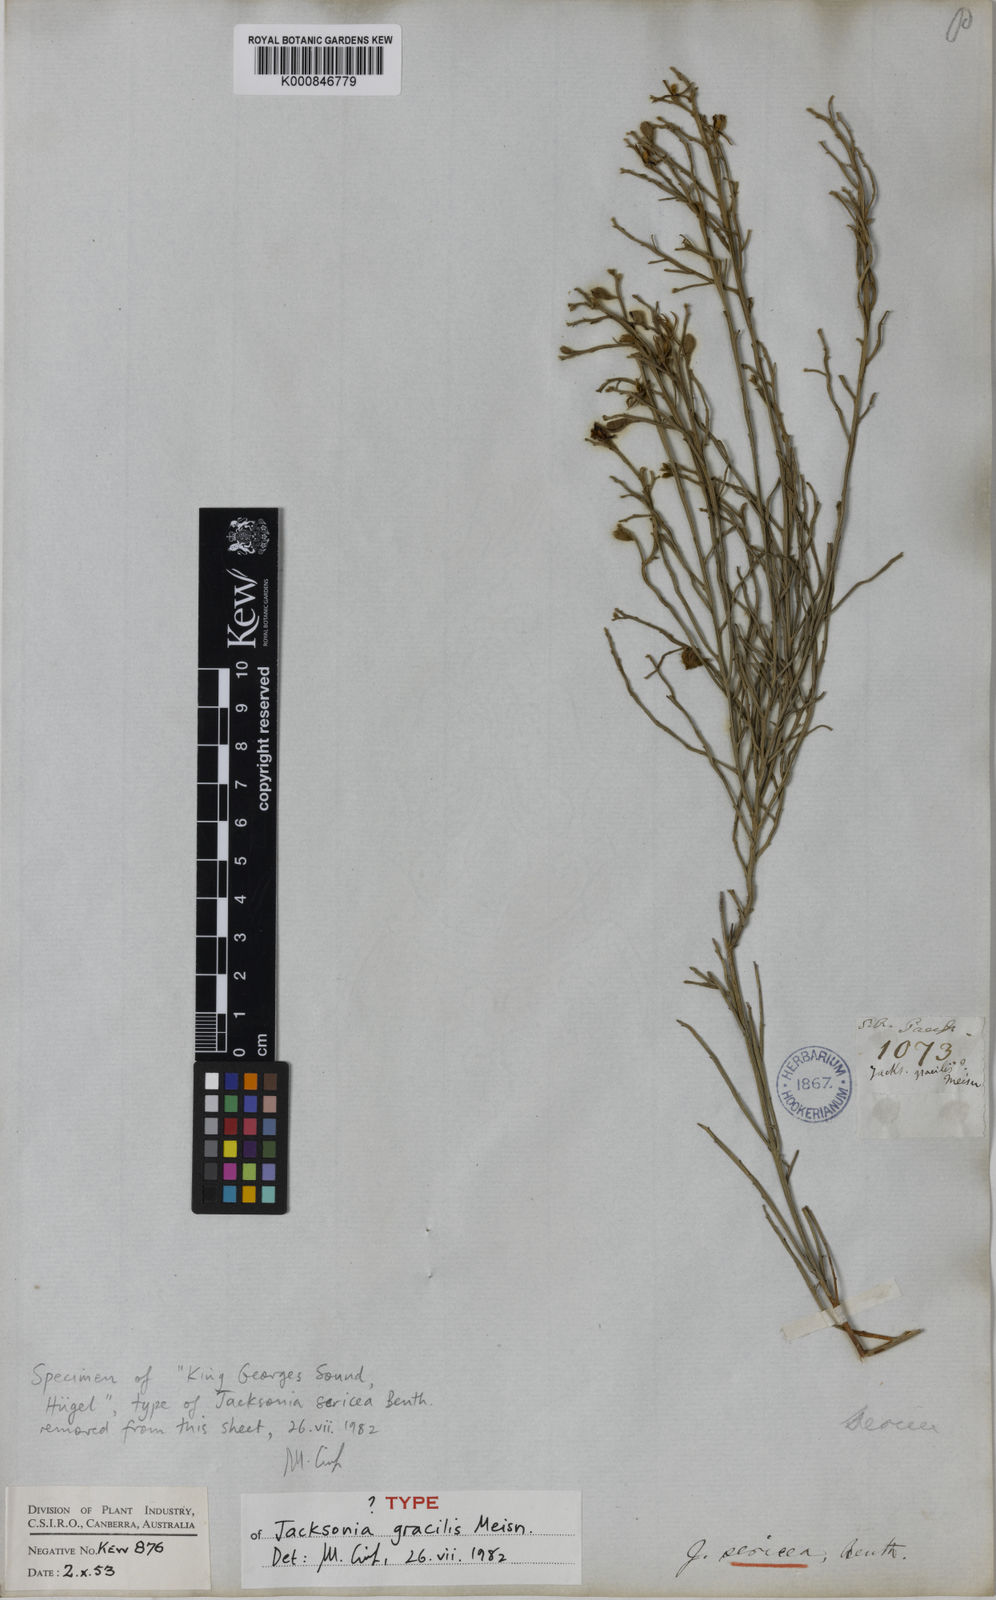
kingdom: Plantae
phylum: Tracheophyta
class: Magnoliopsida
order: Fabales
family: Fabaceae
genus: Jacksonia
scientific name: Jacksonia sericea
